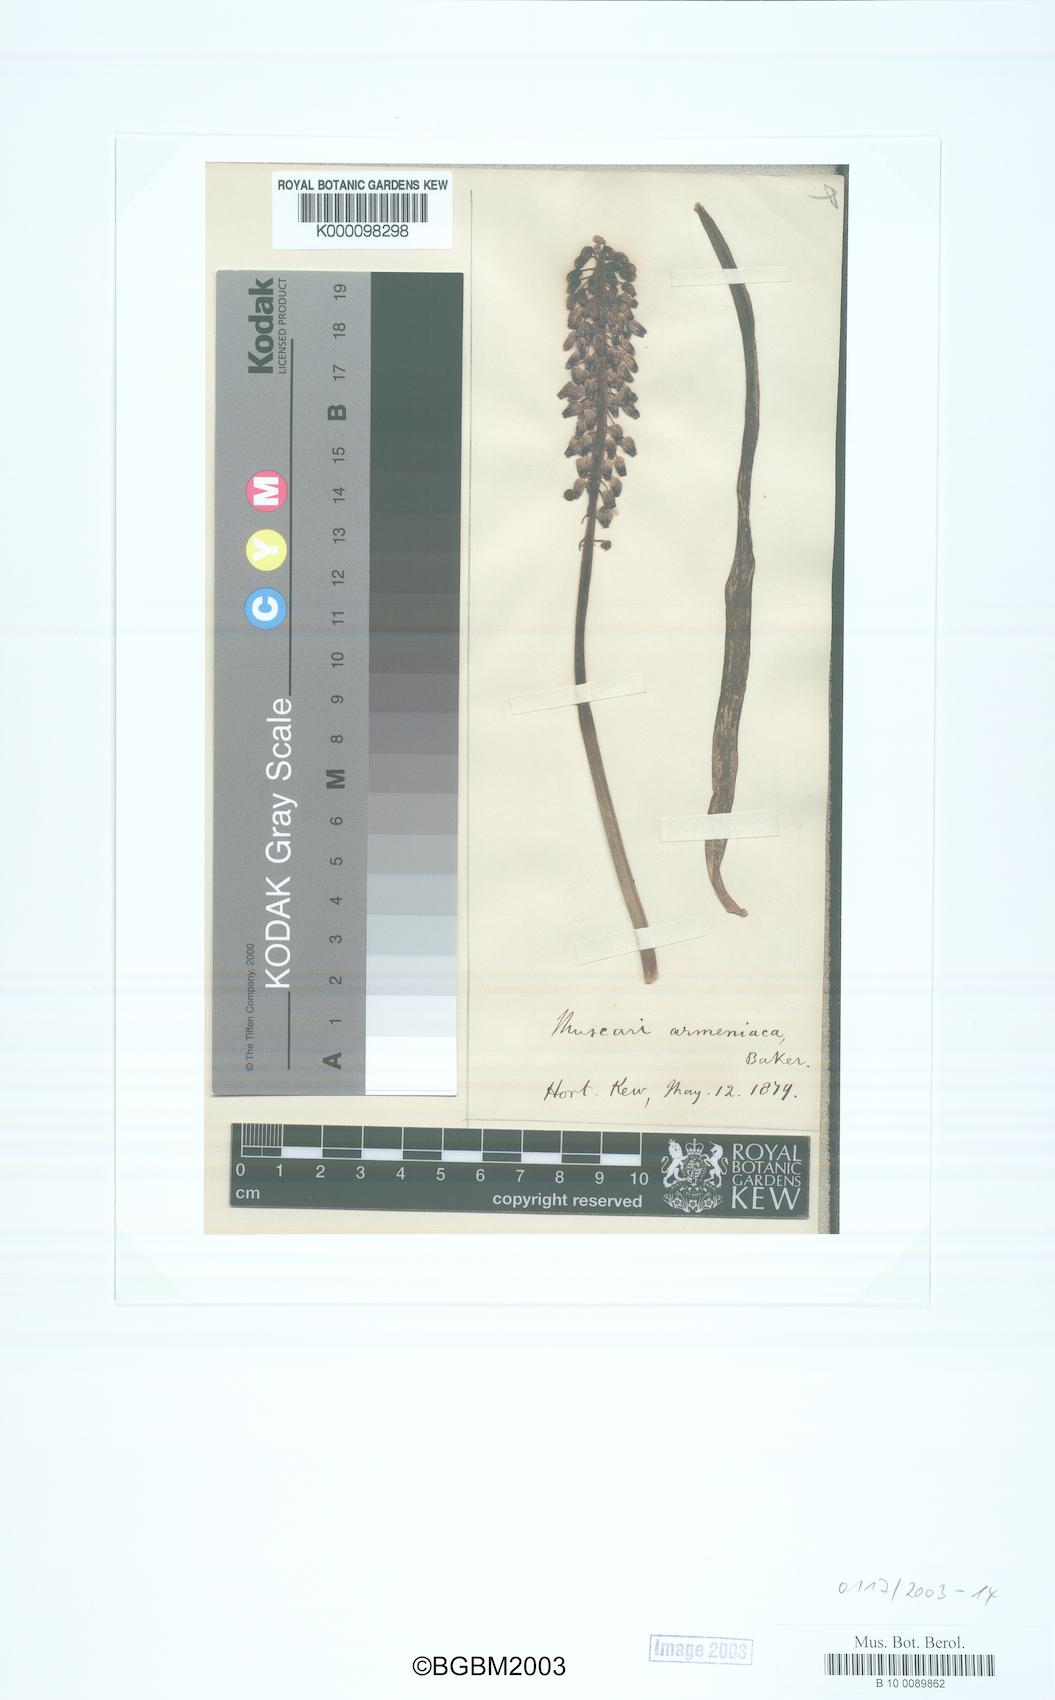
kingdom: Plantae
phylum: Tracheophyta
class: Liliopsida
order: Liliales
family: Liliaceae
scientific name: Liliaceae
